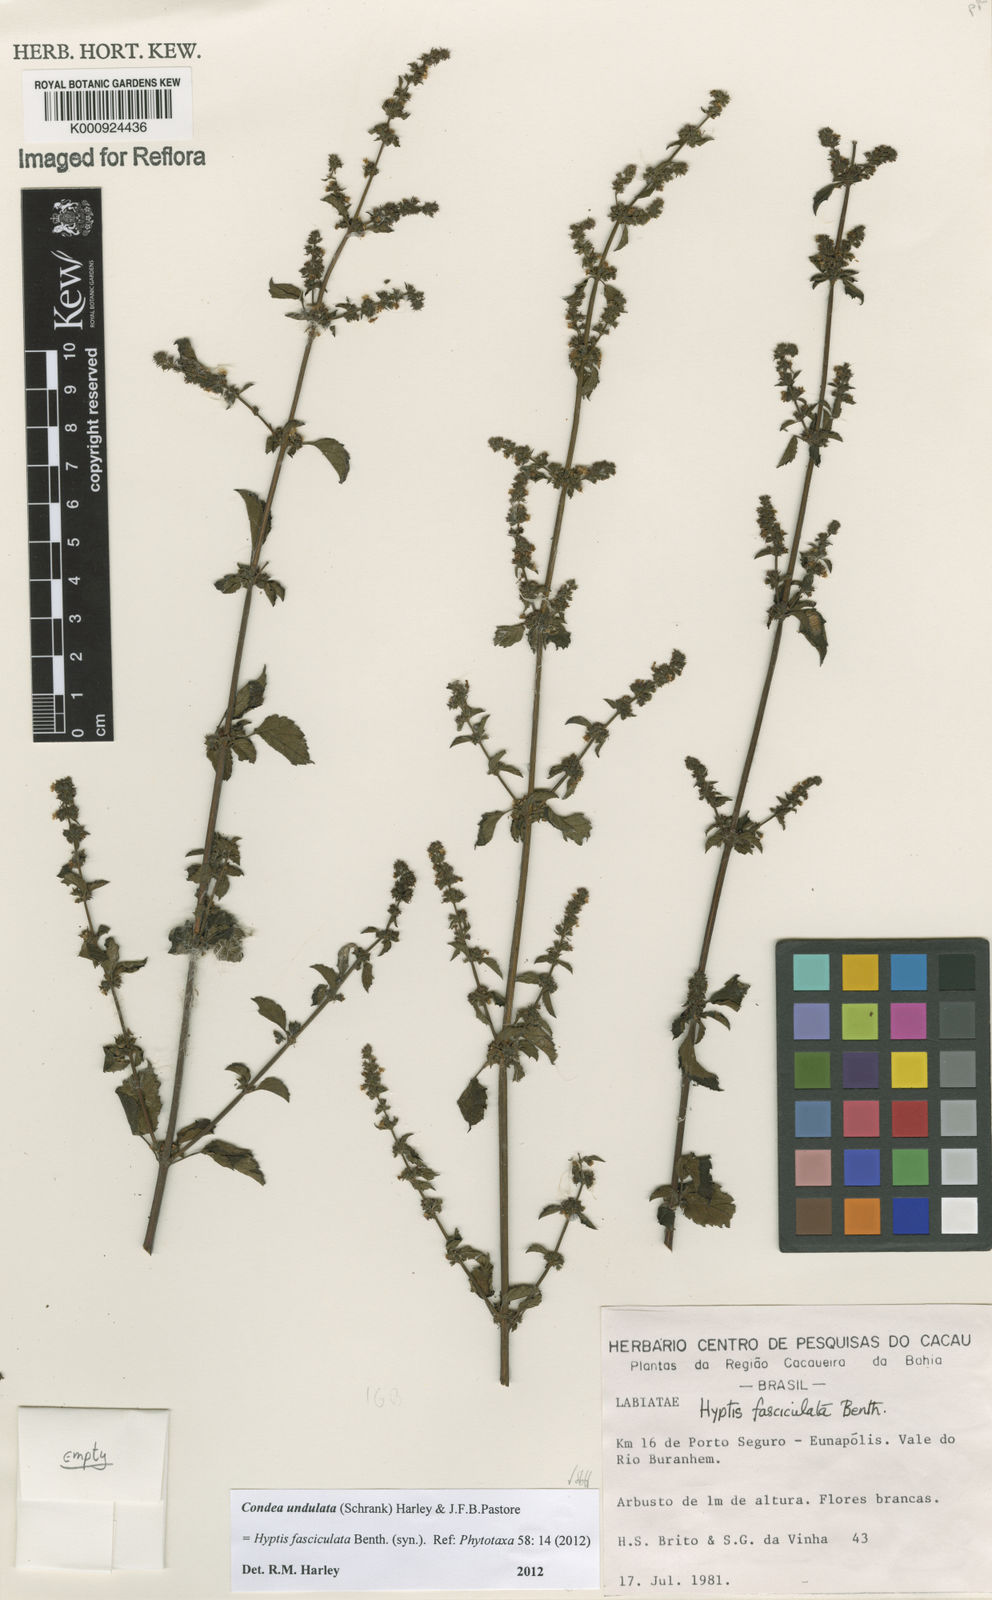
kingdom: Plantae
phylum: Tracheophyta
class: Magnoliopsida
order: Lamiales
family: Lamiaceae
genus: Condea
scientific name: Condea undulata
